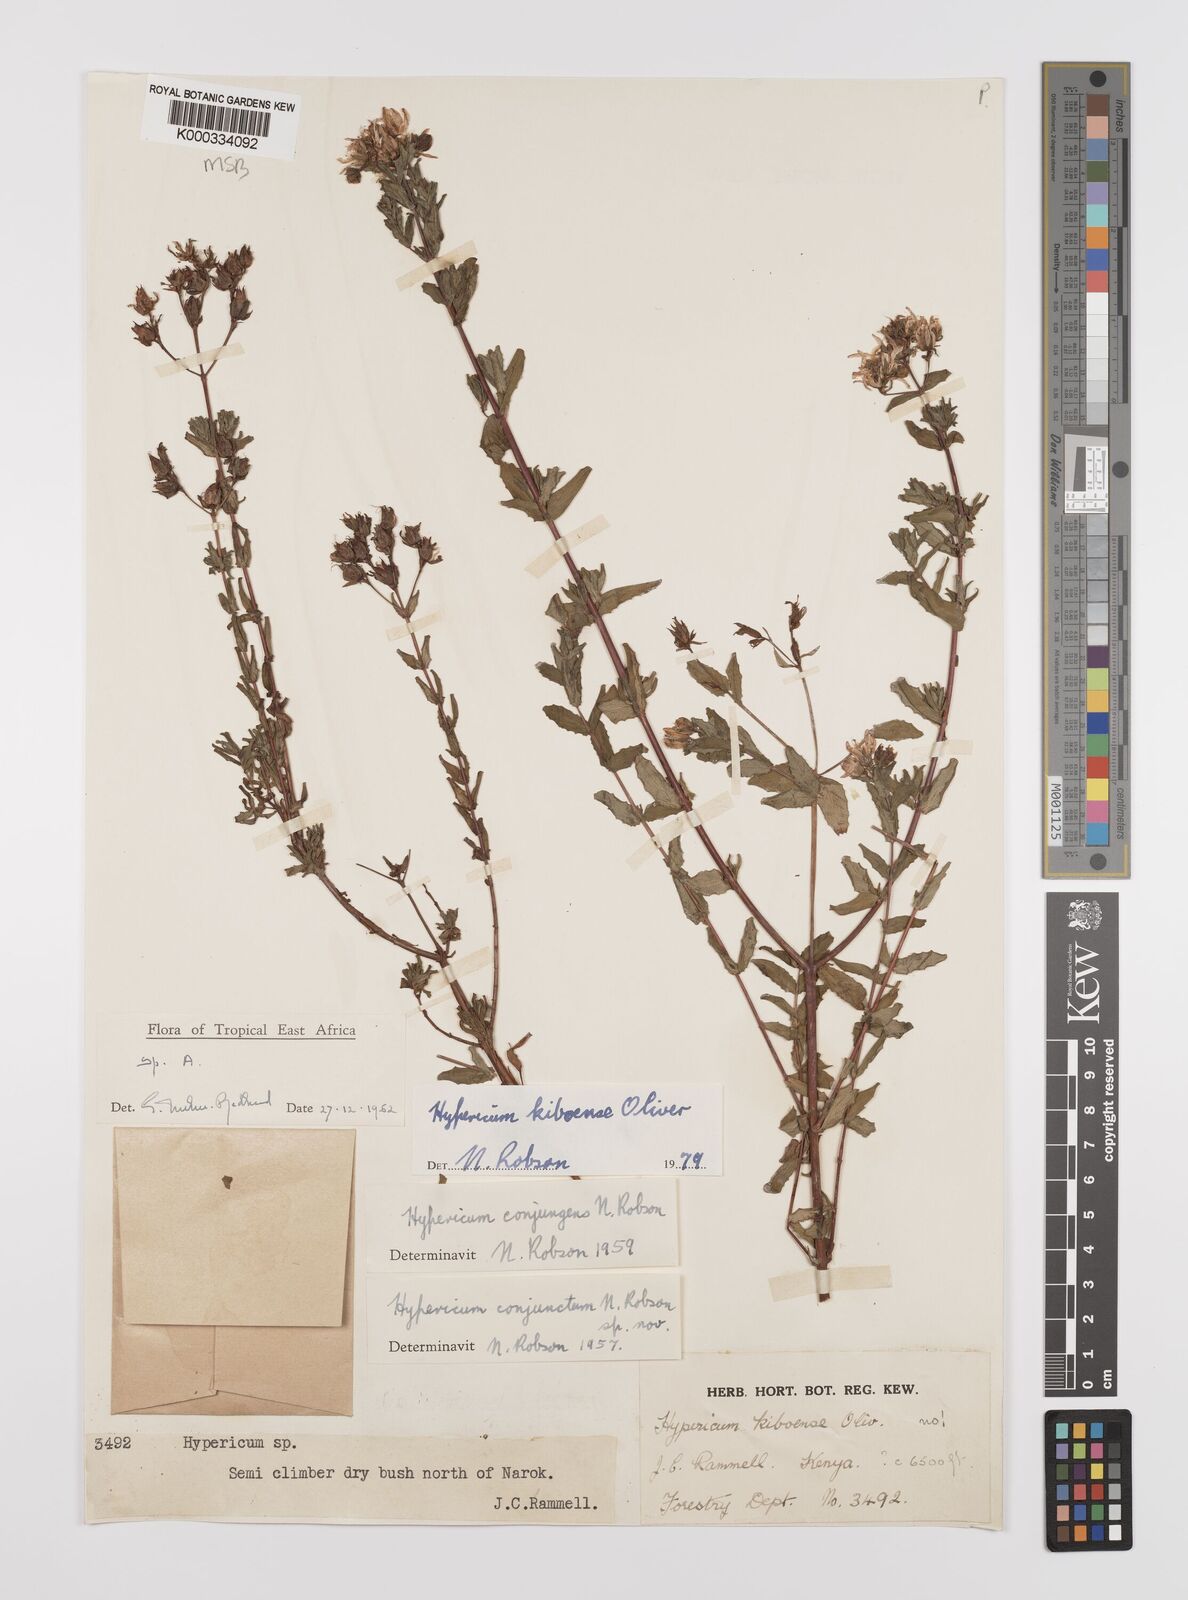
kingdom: Plantae
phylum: Tracheophyta
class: Magnoliopsida
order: Malpighiales
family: Hypericaceae
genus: Hypericum
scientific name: Hypericum kiboense
